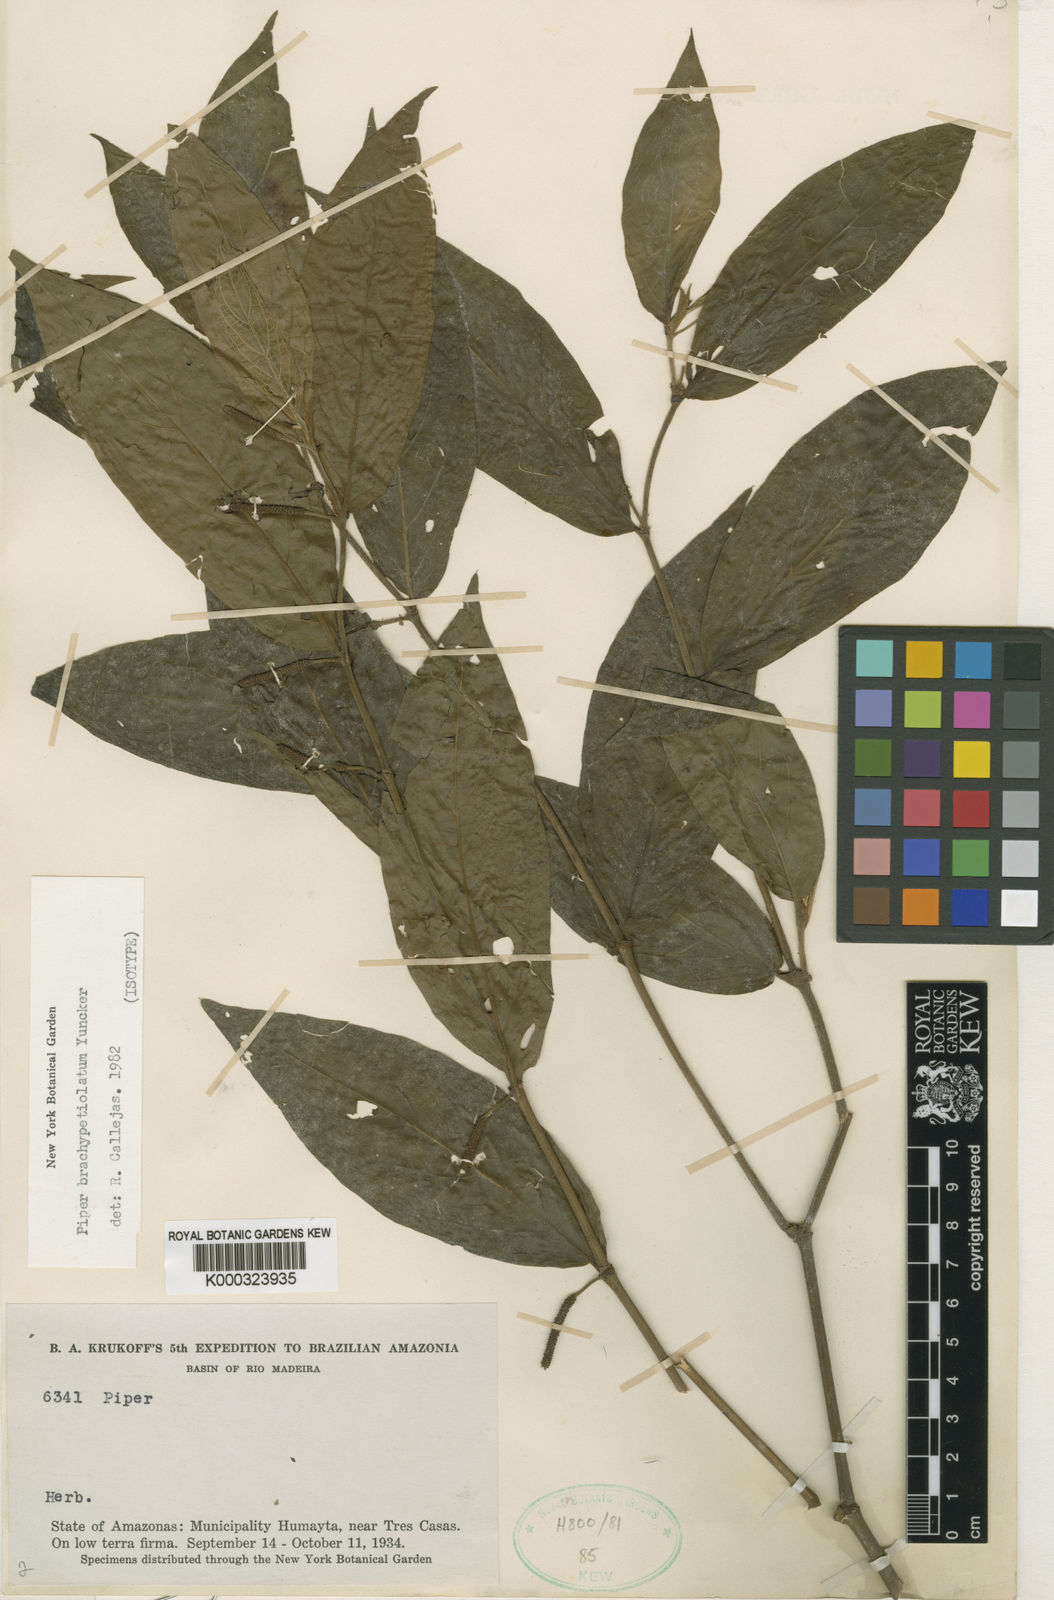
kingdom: Plantae
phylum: Tracheophyta
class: Magnoliopsida
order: Piperales
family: Piperaceae
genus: Piper
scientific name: Piper brachypetiolatum
